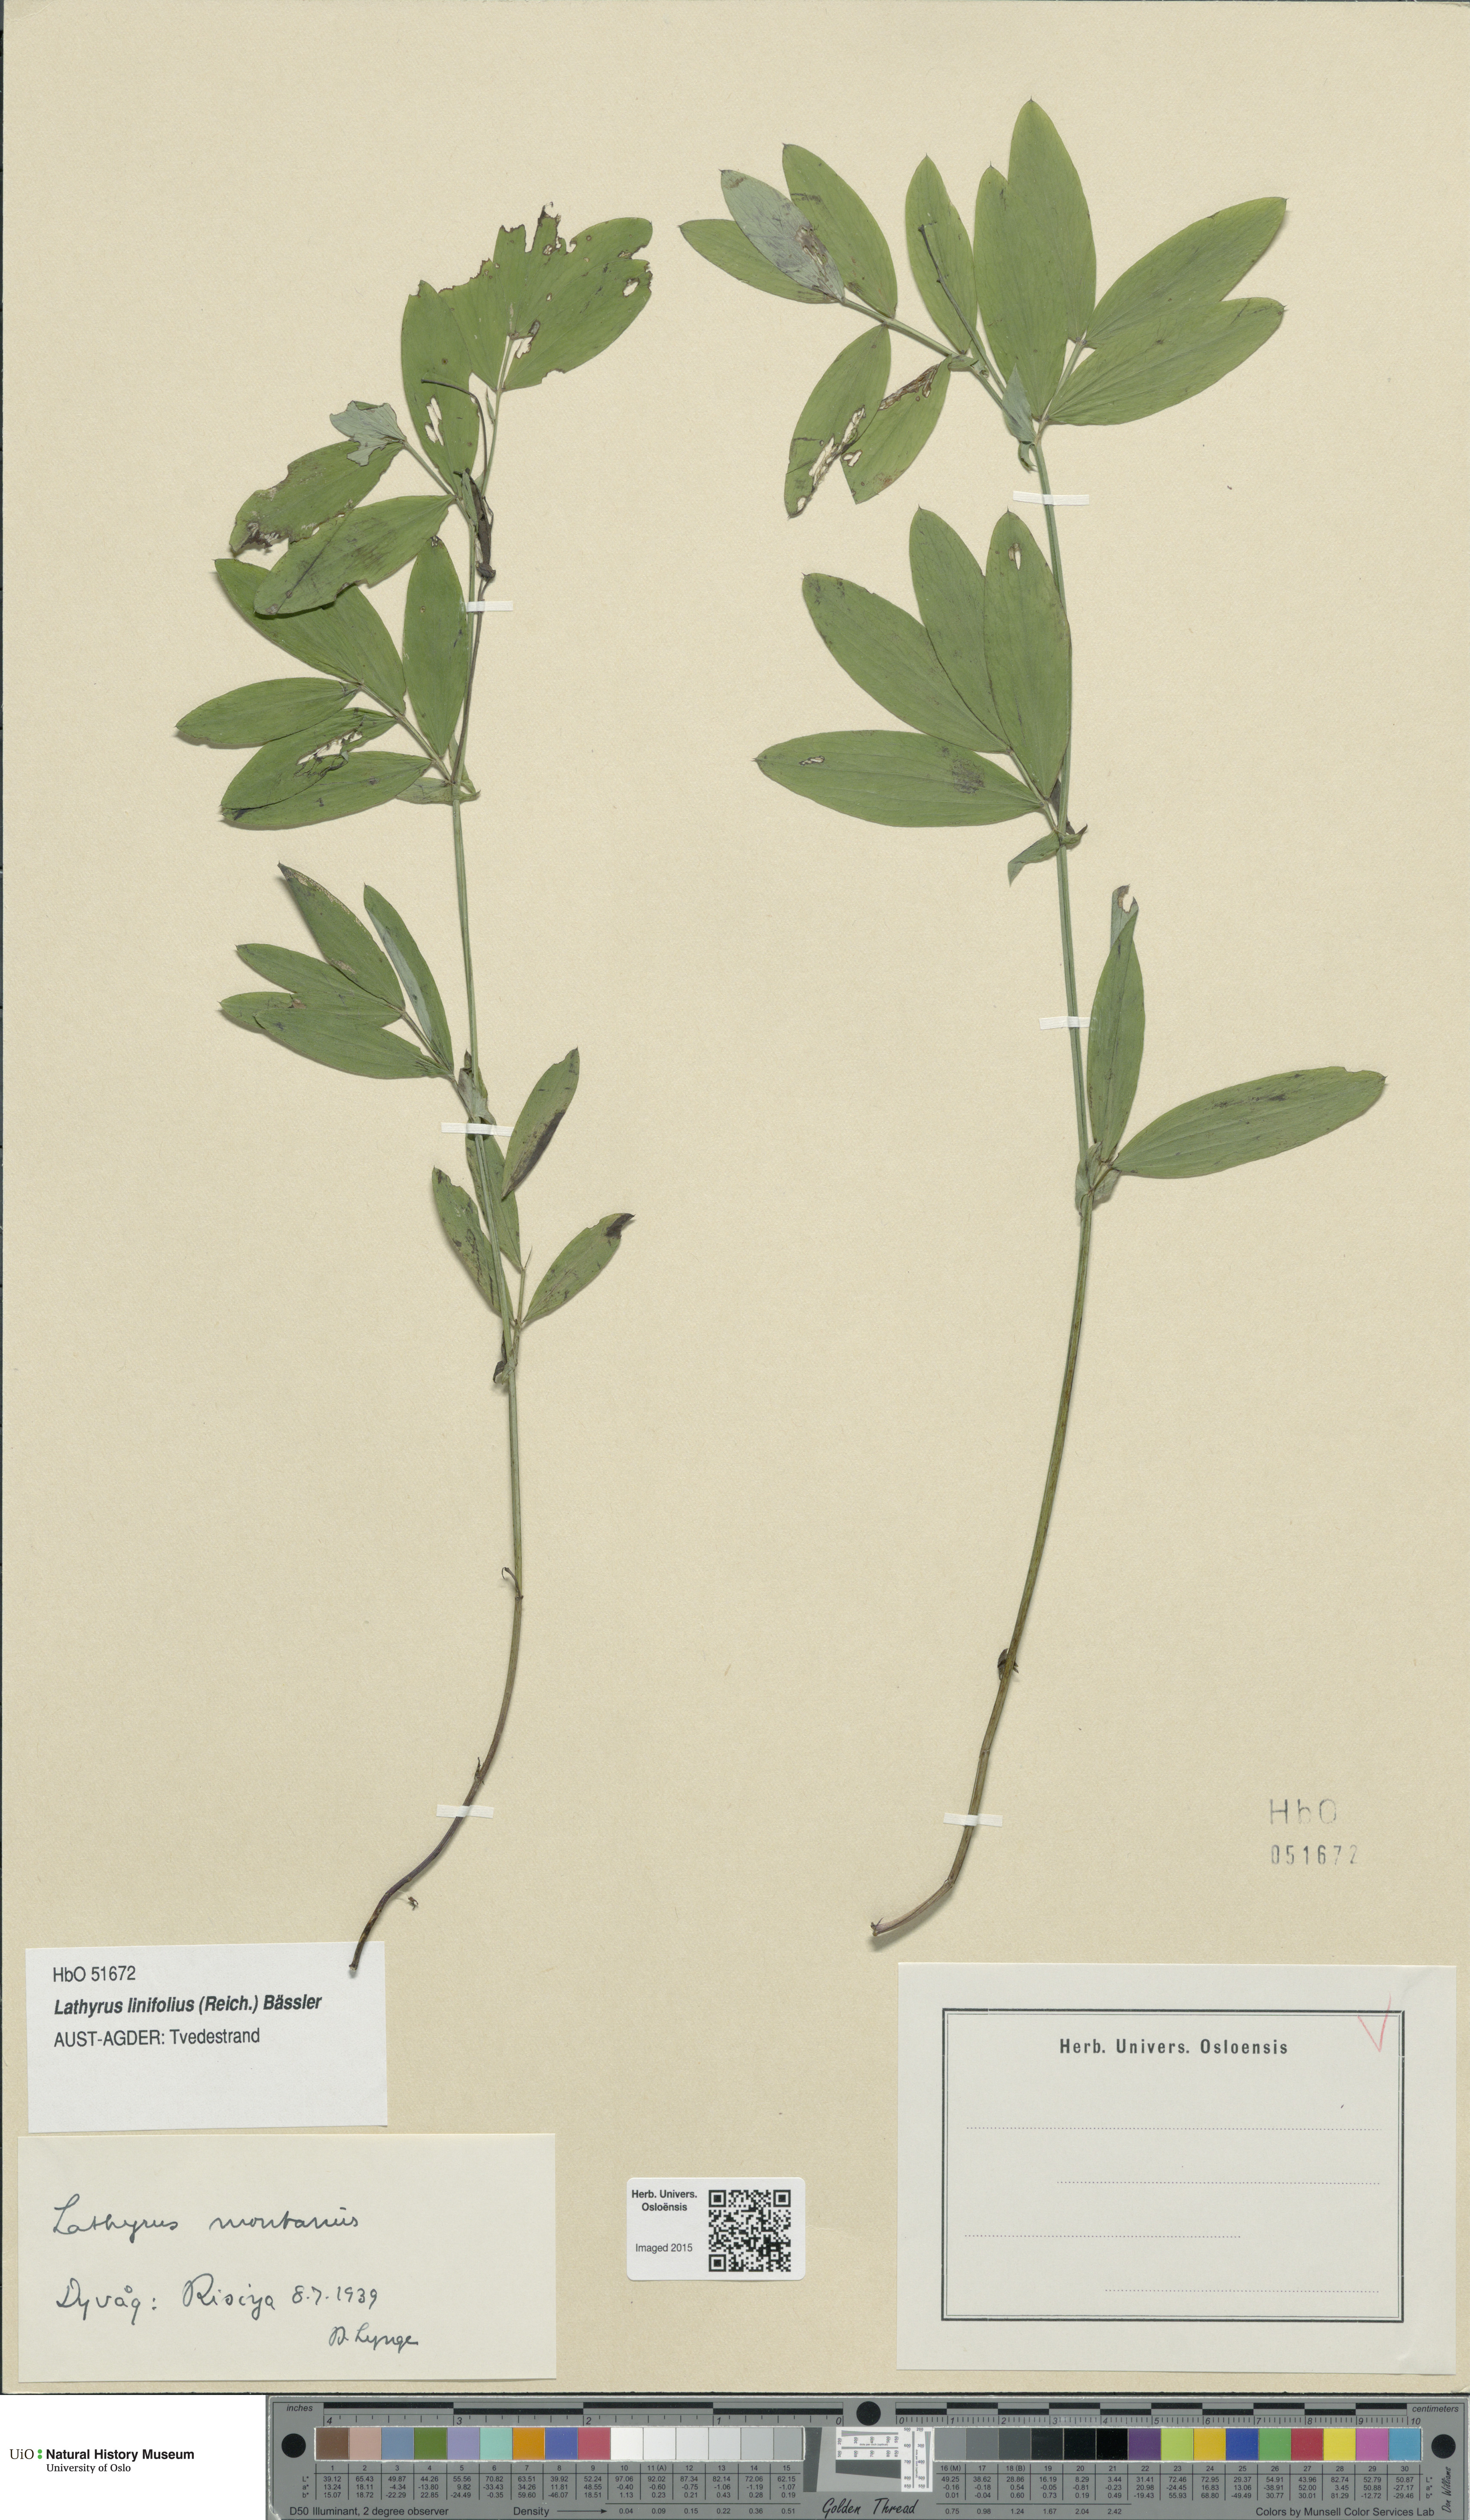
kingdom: Plantae
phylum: Tracheophyta
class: Magnoliopsida
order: Fabales
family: Fabaceae
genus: Lathyrus
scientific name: Lathyrus linifolius
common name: Bitter-vetch
